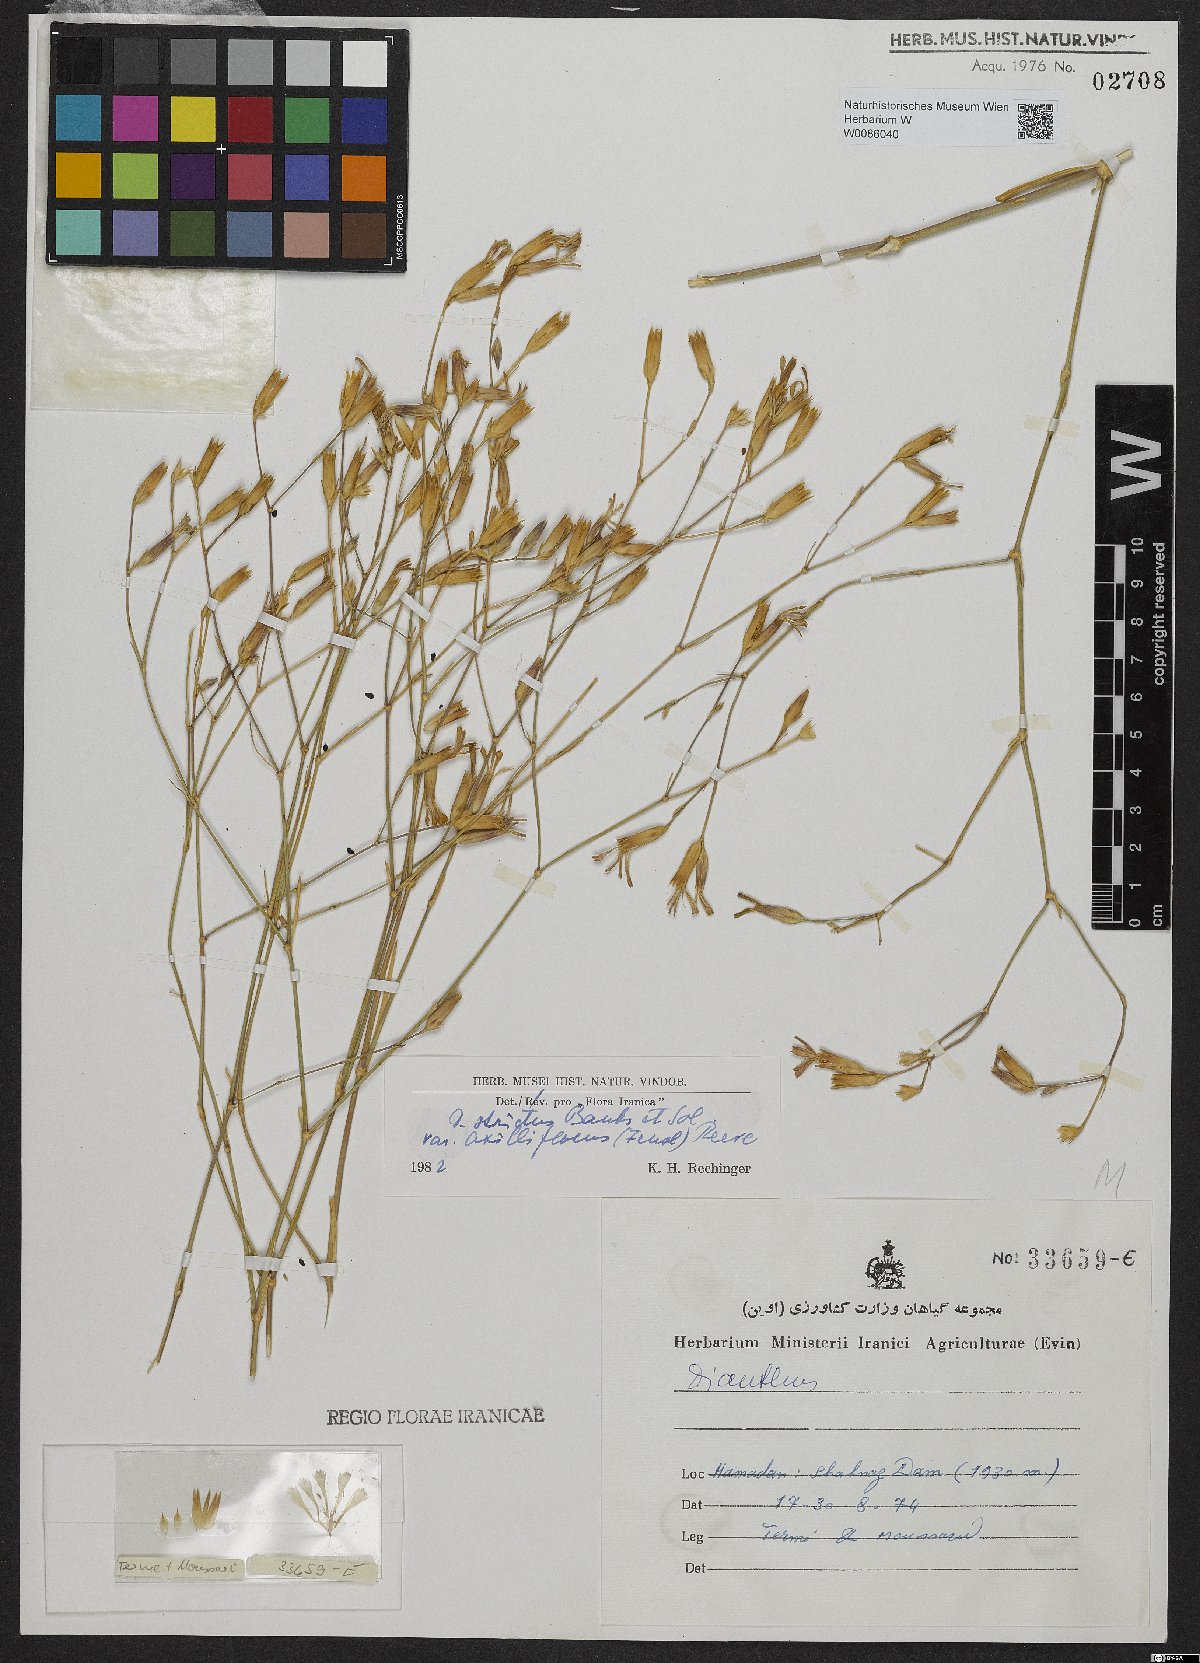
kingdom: Plantae
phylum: Tracheophyta
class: Magnoliopsida
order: Caryophyllales
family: Caryophyllaceae
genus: Dianthus
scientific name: Dianthus strictus
